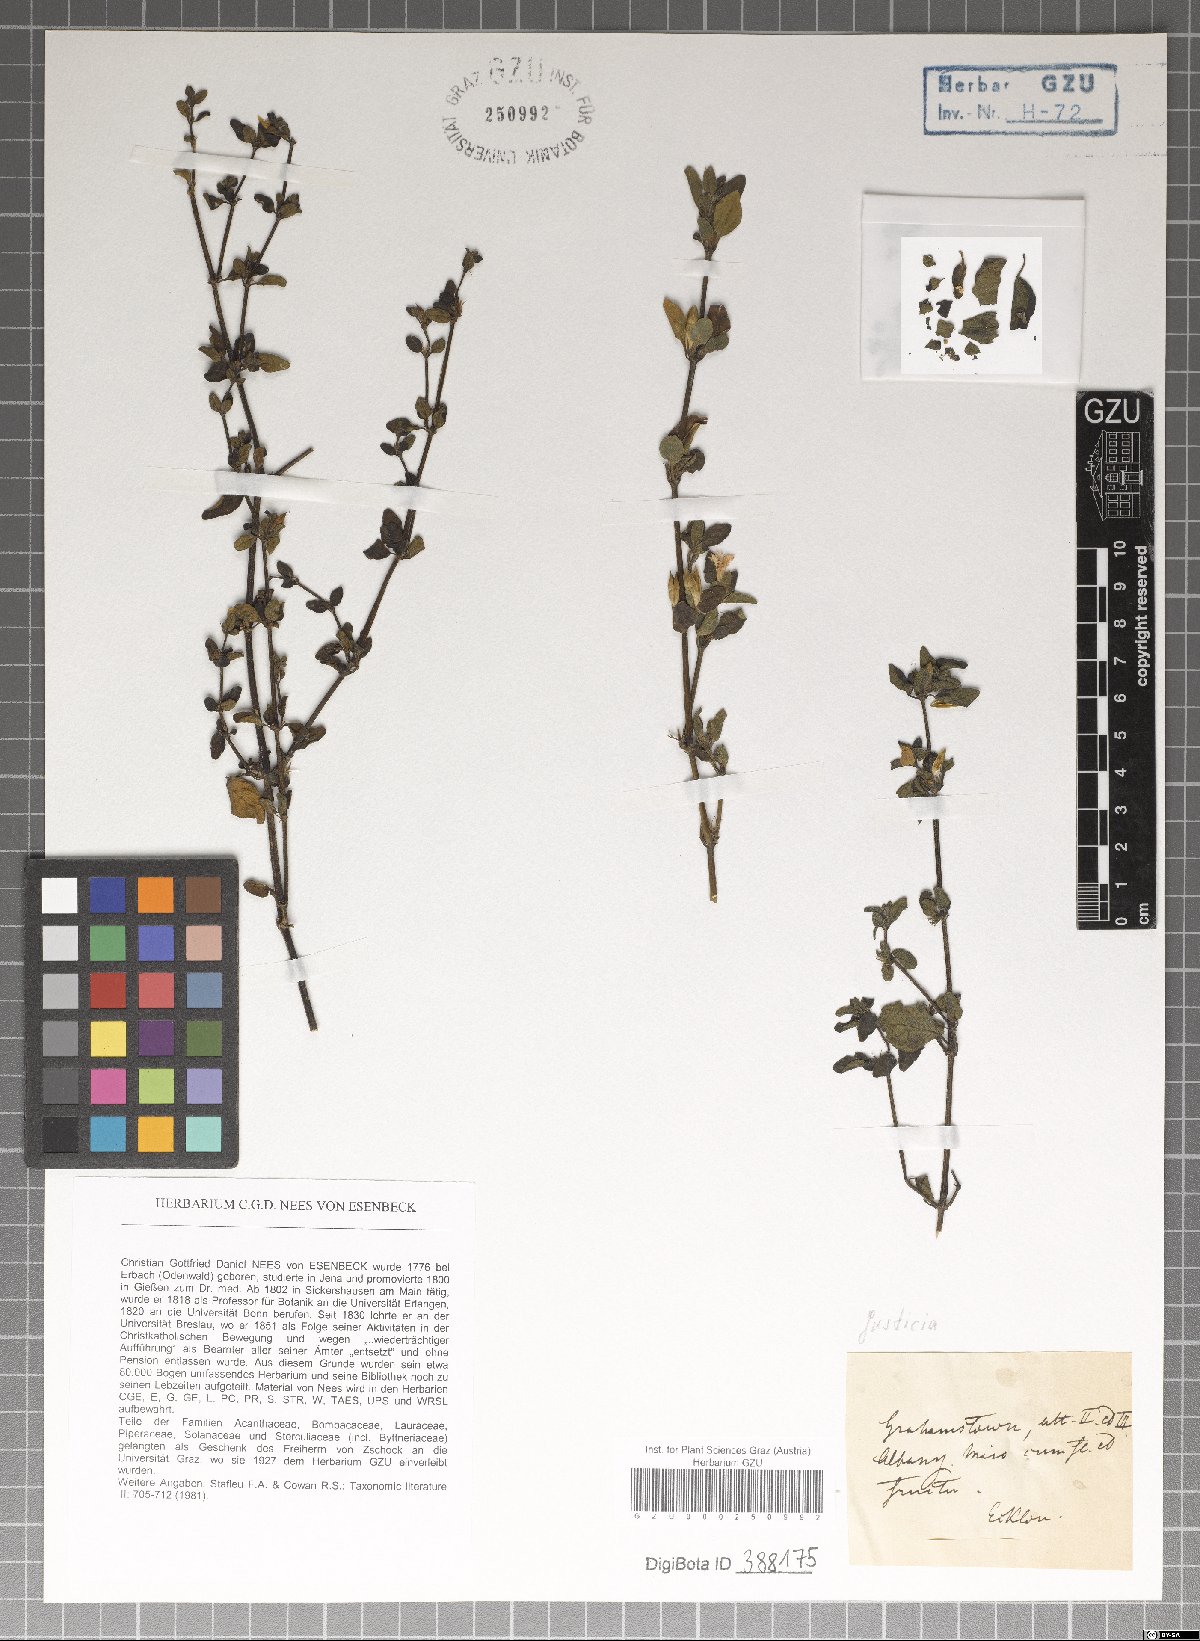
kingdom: Plantae
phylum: Tracheophyta
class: Magnoliopsida
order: Lamiales
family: Acanthaceae
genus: Justicia
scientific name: Justicia protracta
